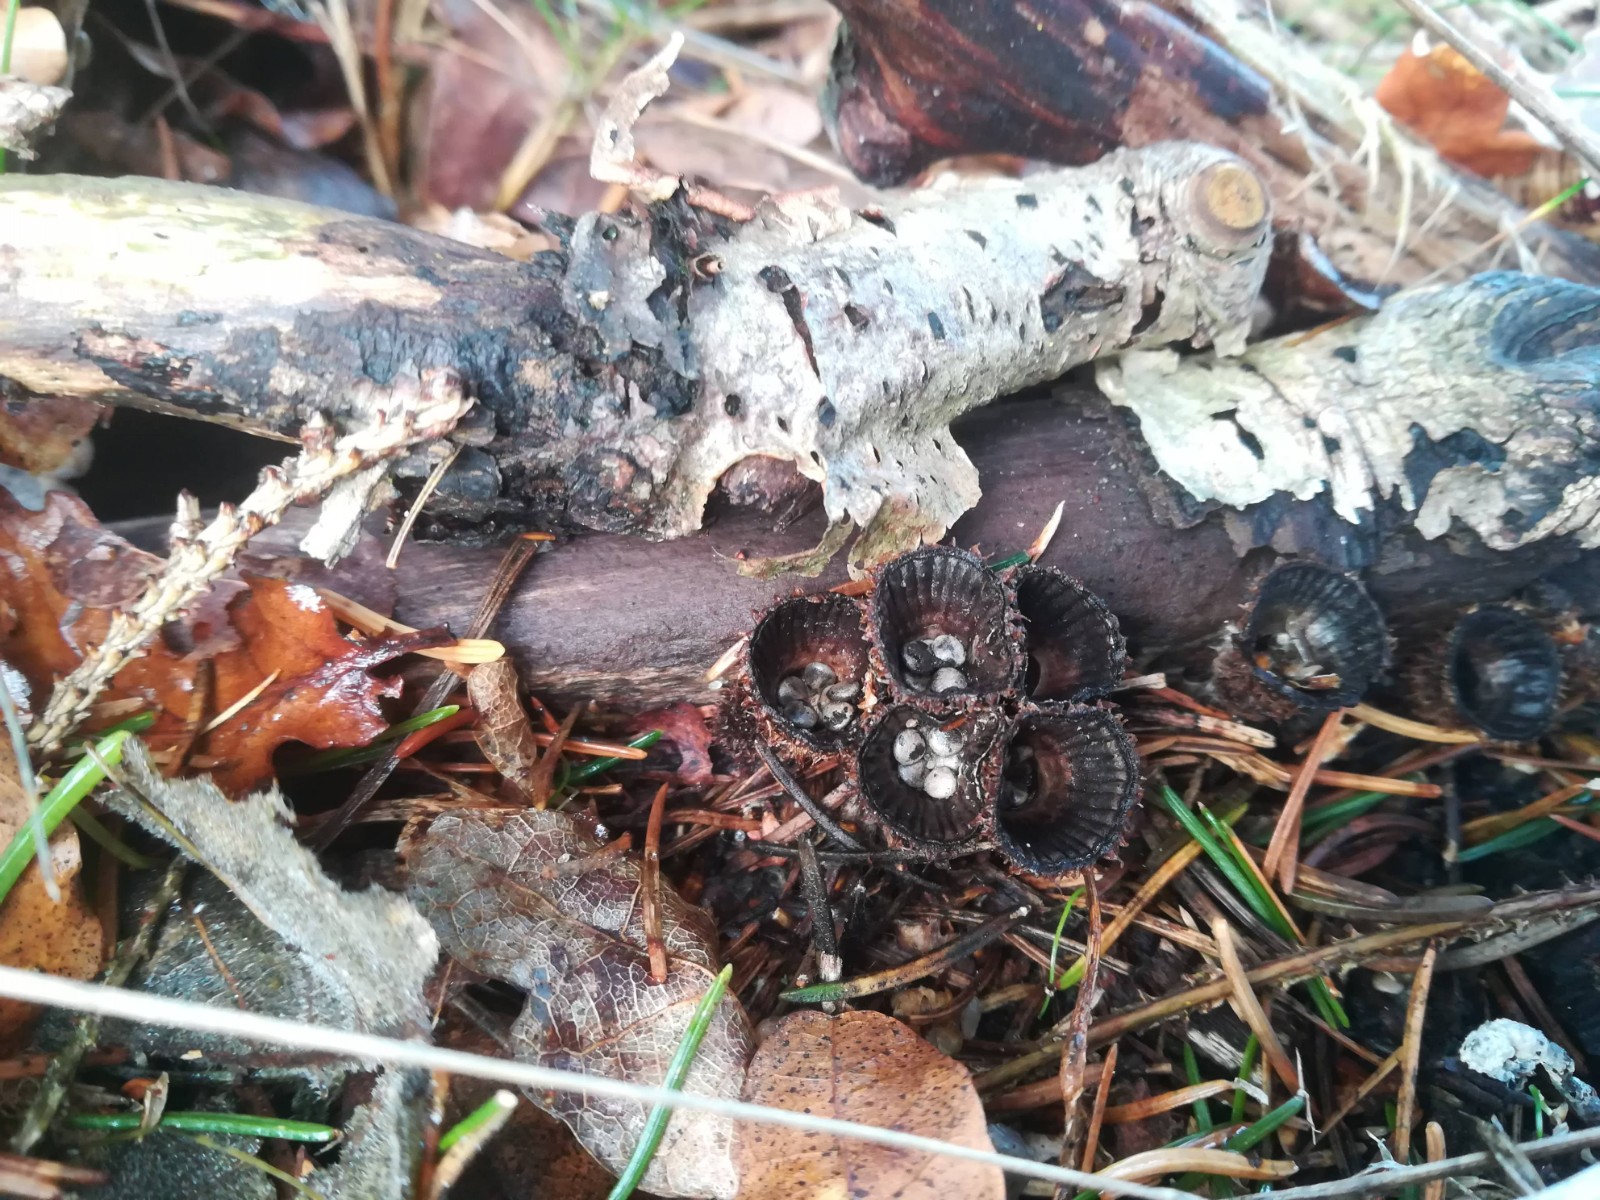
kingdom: Fungi
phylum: Basidiomycota
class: Agaricomycetes
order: Agaricales
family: Agaricaceae
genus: Cyathus
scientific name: Cyathus striatus
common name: stribet redesvamp
